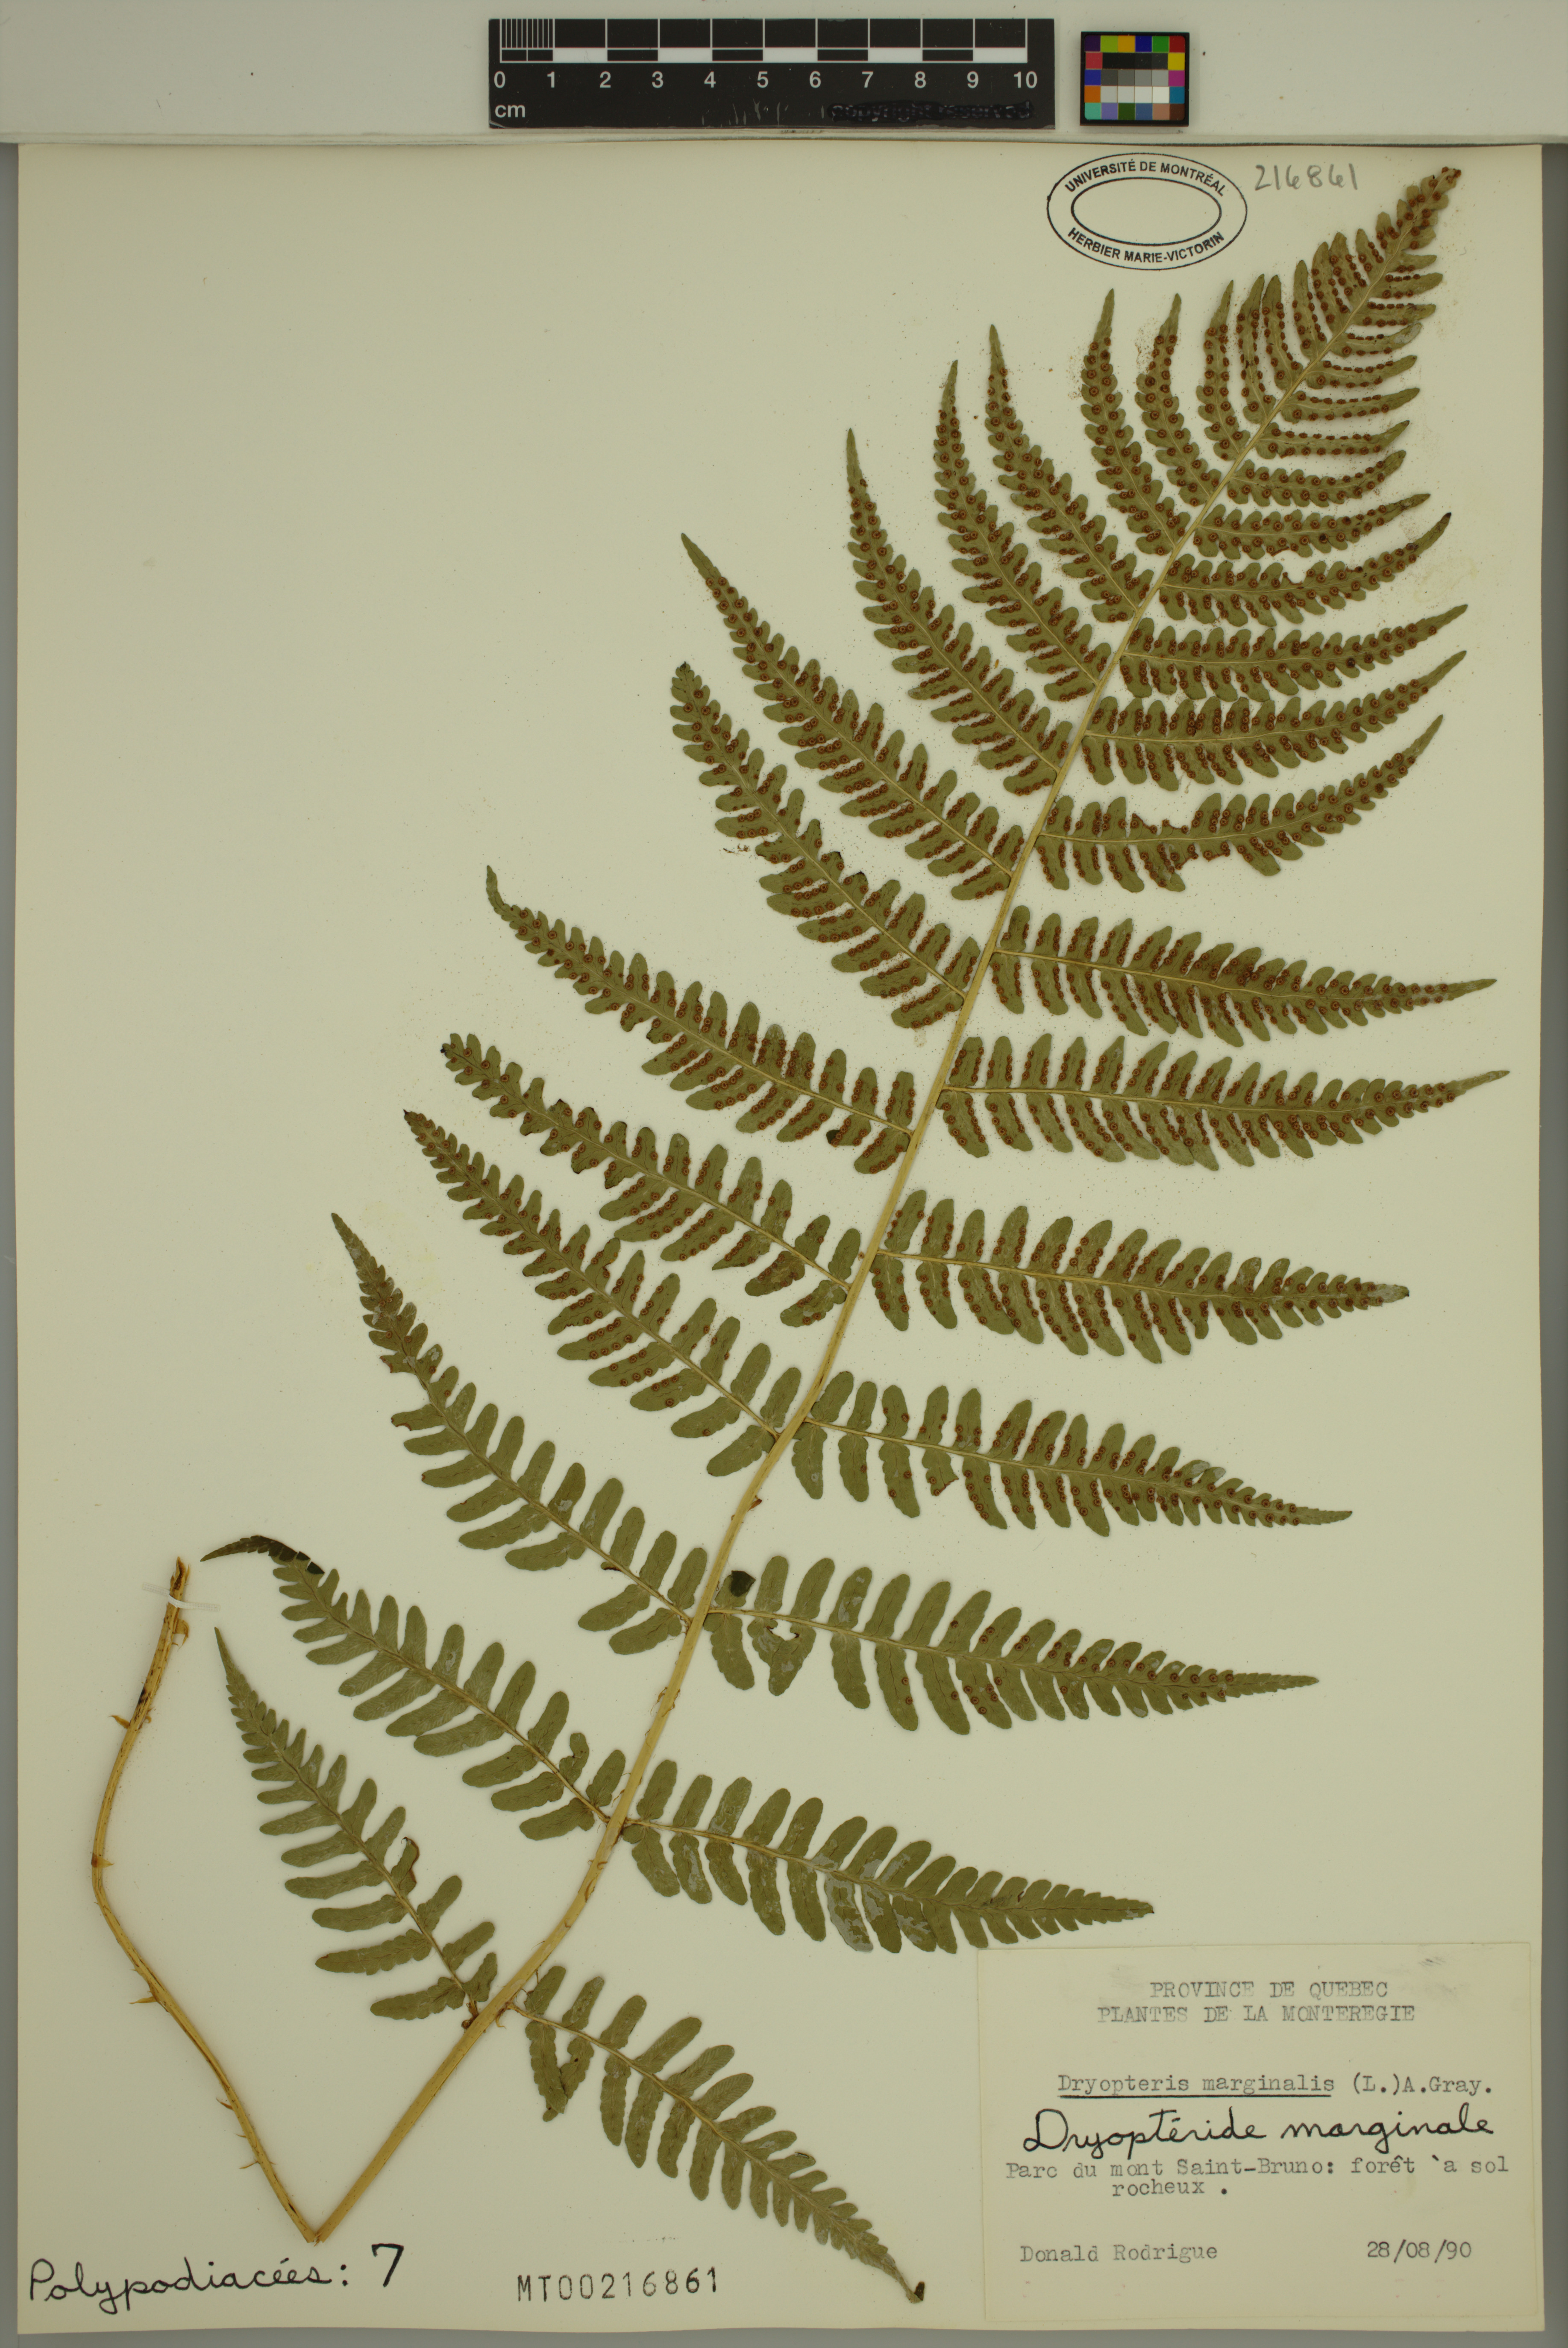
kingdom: Plantae
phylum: Tracheophyta
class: Polypodiopsida
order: Polypodiales
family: Dryopteridaceae
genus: Dryopteris
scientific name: Dryopteris marginalis
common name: Marginal wood fern
